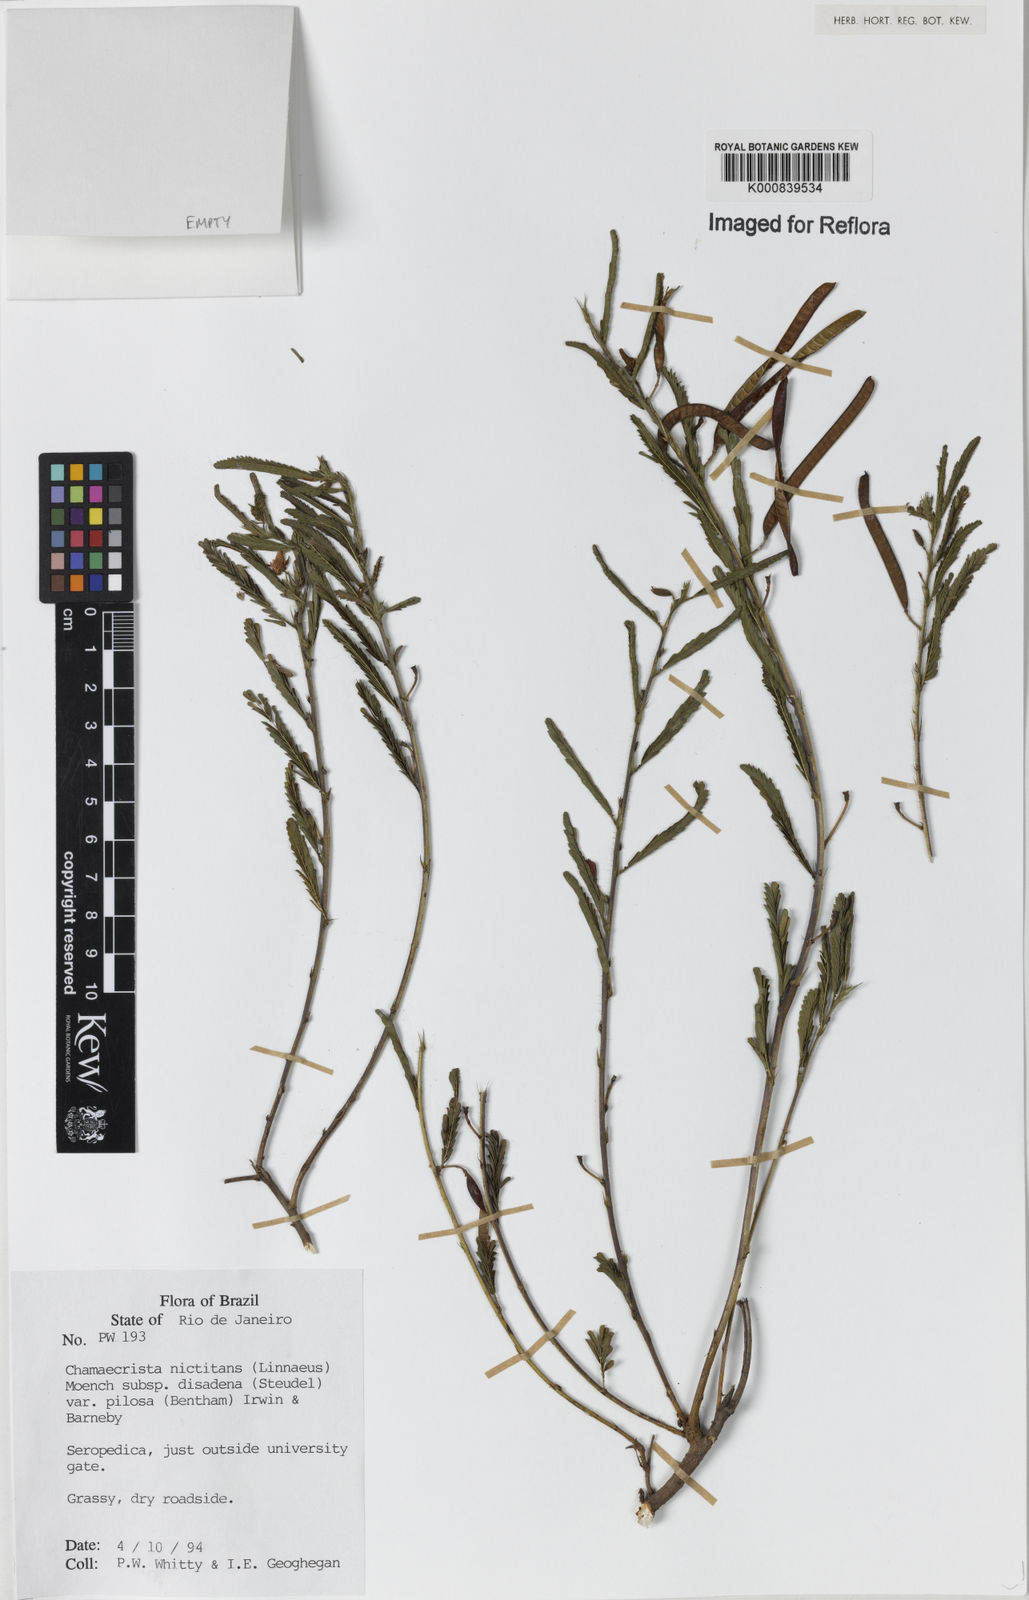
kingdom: Plantae
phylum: Tracheophyta
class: Magnoliopsida
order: Fabales
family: Fabaceae
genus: Chamaecrista
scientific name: Chamaecrista nictitans
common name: Sensitive cassia
